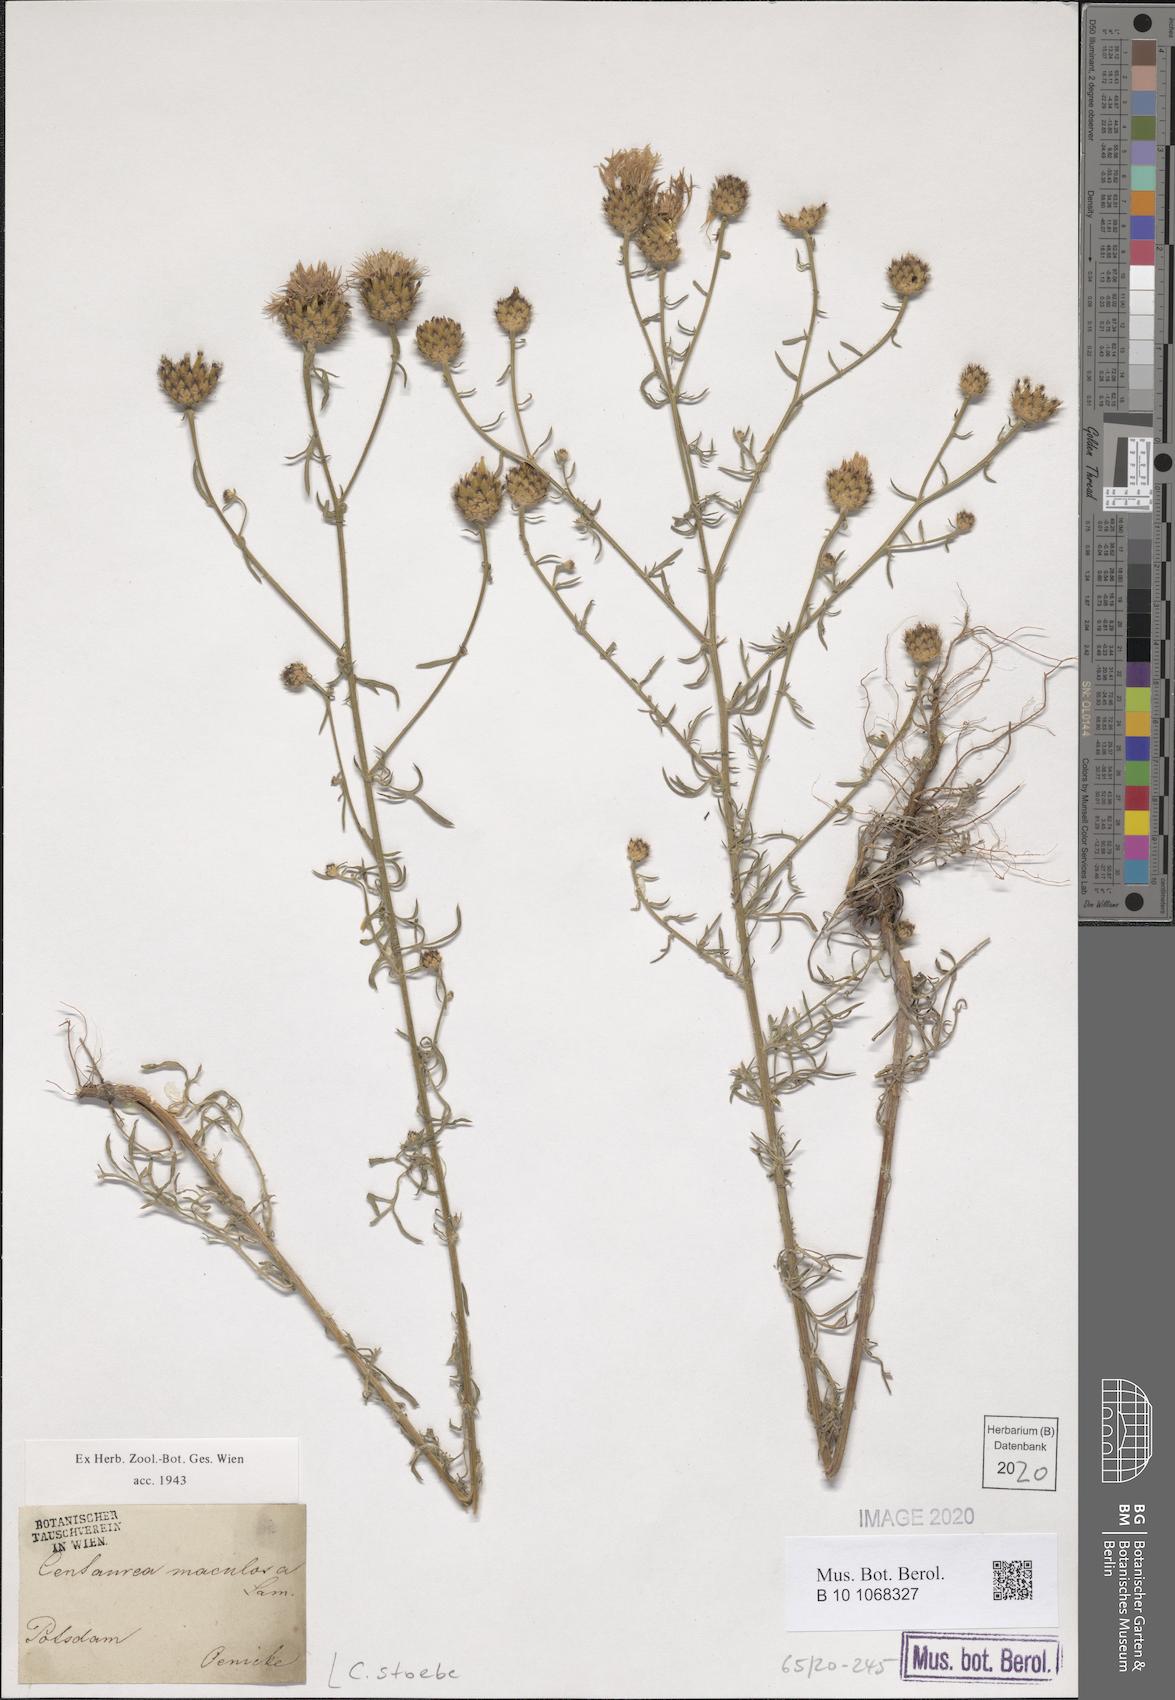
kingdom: Plantae
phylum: Tracheophyta
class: Magnoliopsida
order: Asterales
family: Asteraceae
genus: Centaurea
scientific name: Centaurea stoebe
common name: Spotted knapweed
